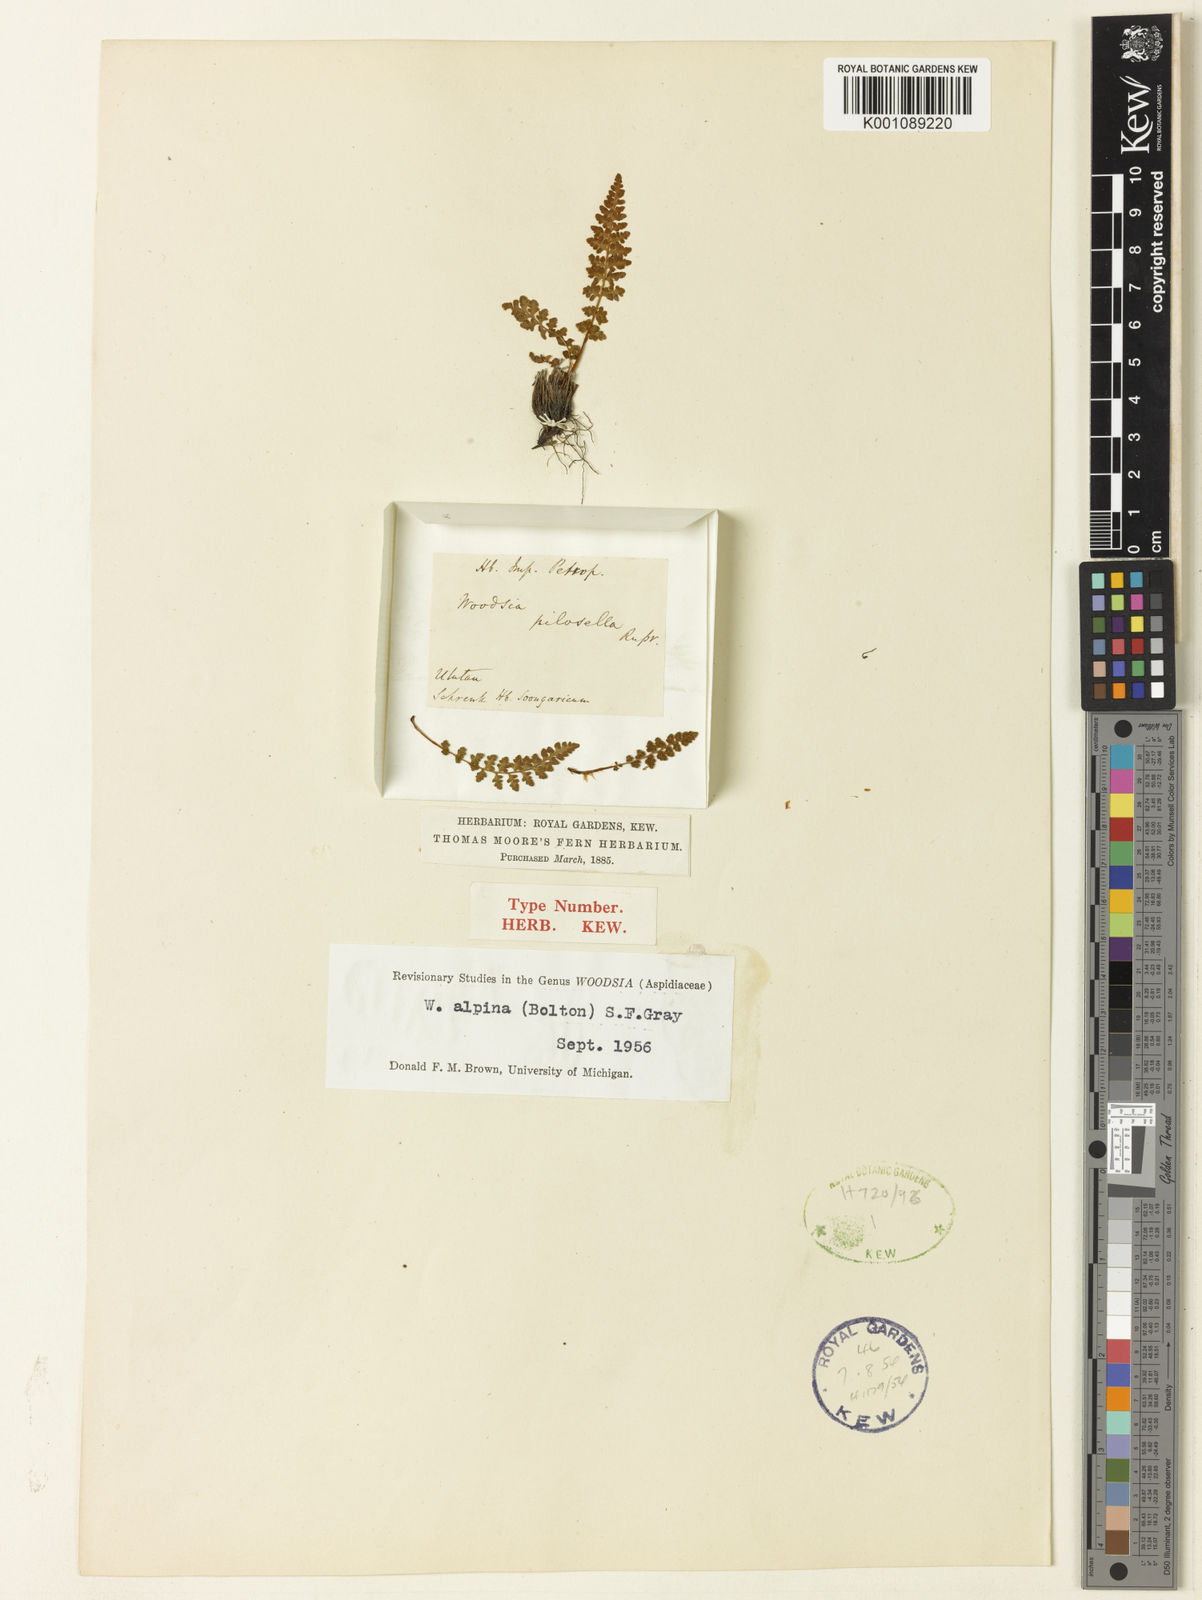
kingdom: Plantae
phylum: Tracheophyta
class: Polypodiopsida
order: Polypodiales
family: Woodsiaceae
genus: Woodsia
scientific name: Woodsia alpina
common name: Alpine woodsia
